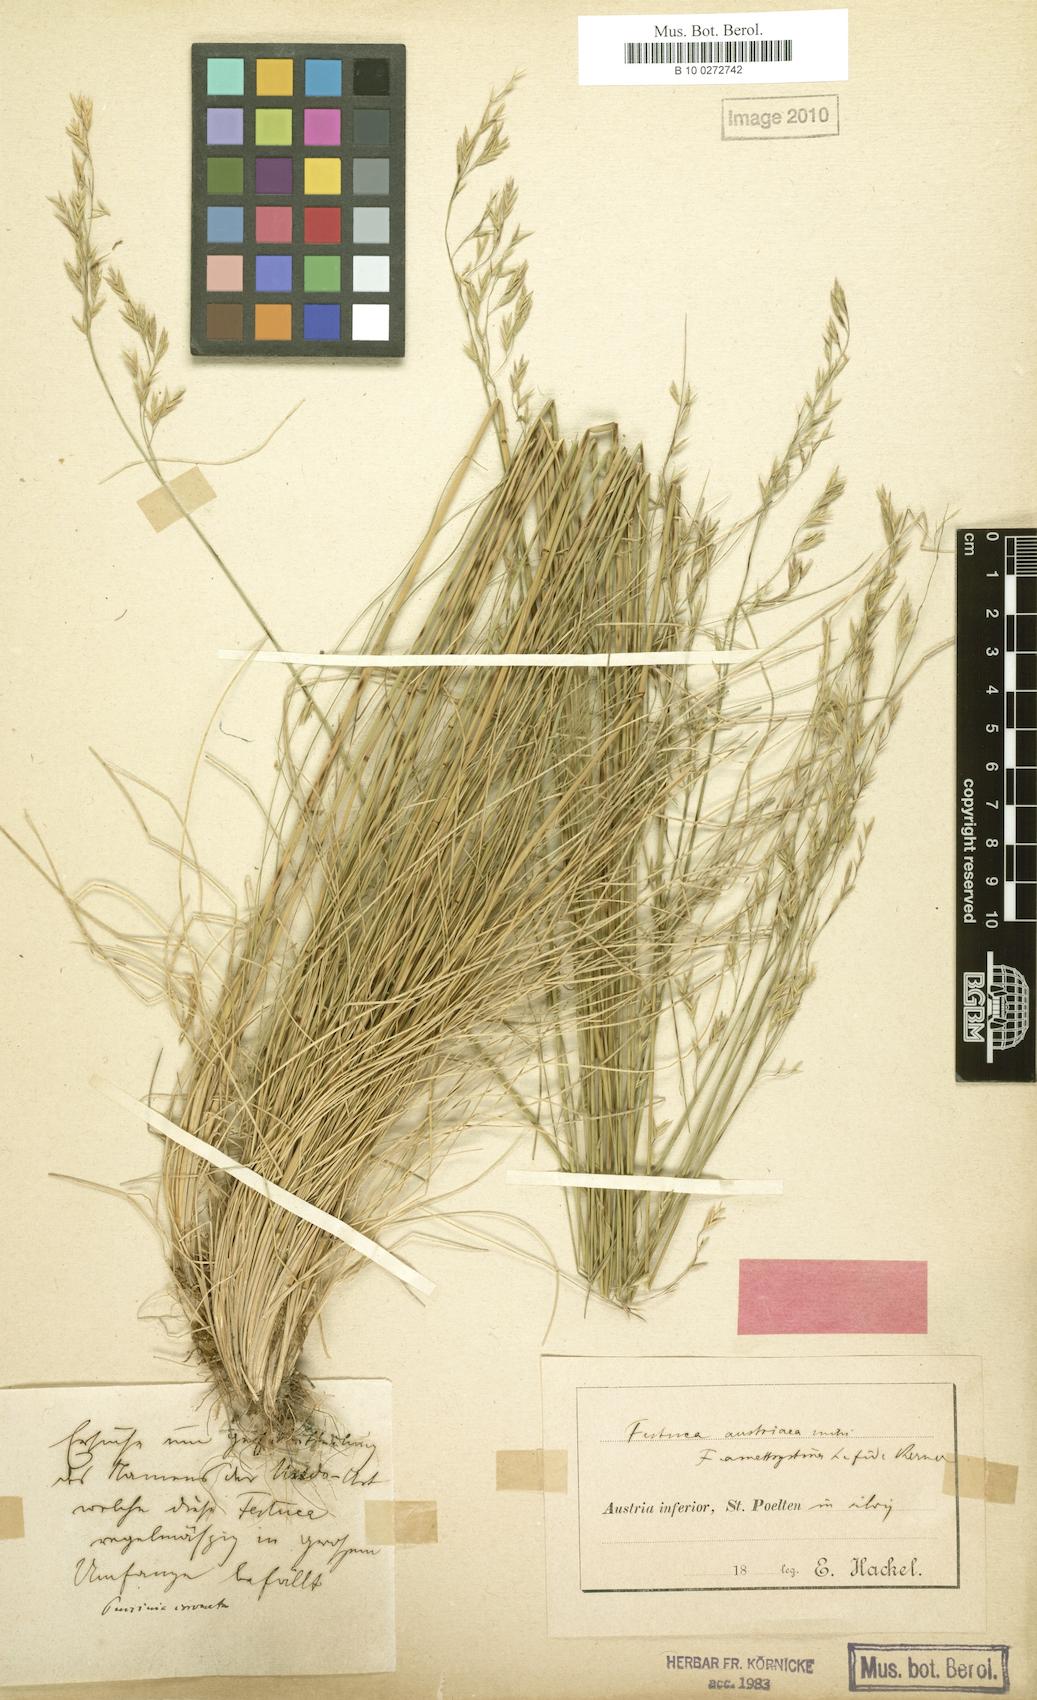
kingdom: Plantae
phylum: Tracheophyta
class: Liliopsida
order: Poales
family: Poaceae
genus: Festuca
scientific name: Festuca amethystina
